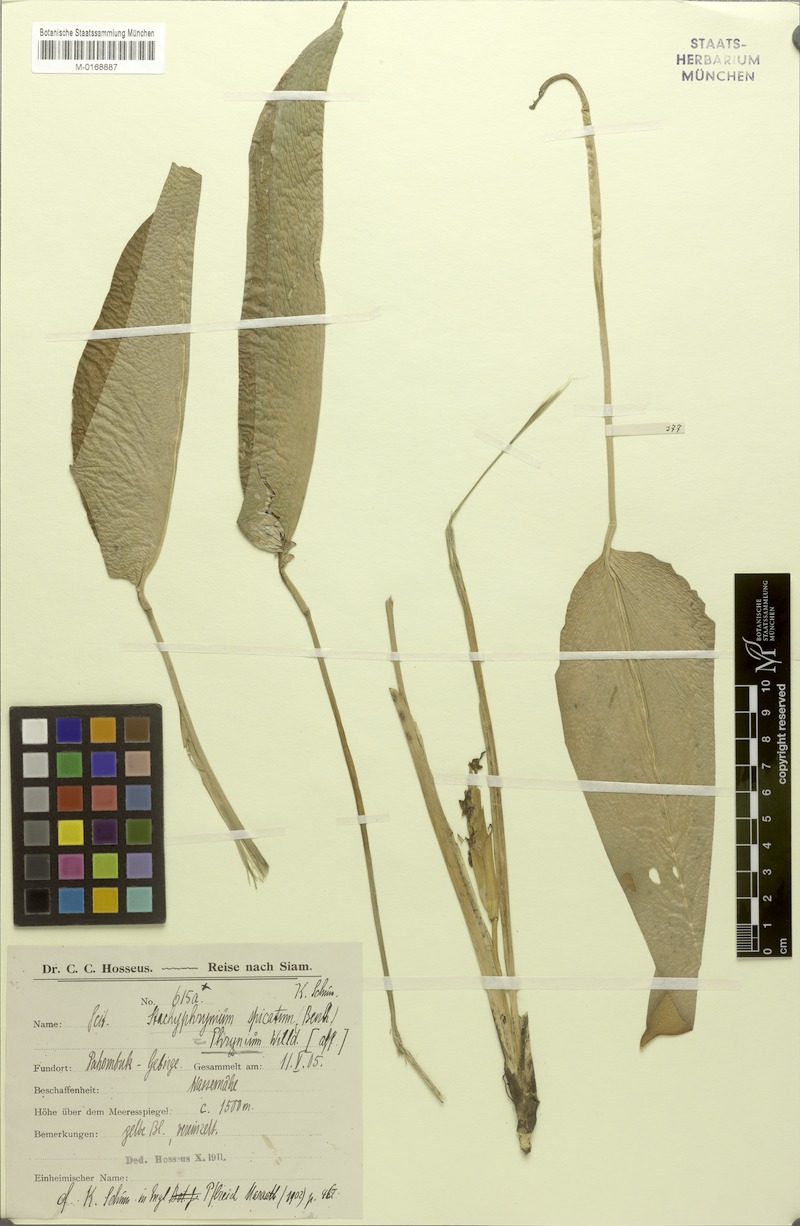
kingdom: Plantae
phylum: Tracheophyta
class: Liliopsida
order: Zingiberales
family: Marantaceae
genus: Stachyphrynium
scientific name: Stachyphrynium spicatum
